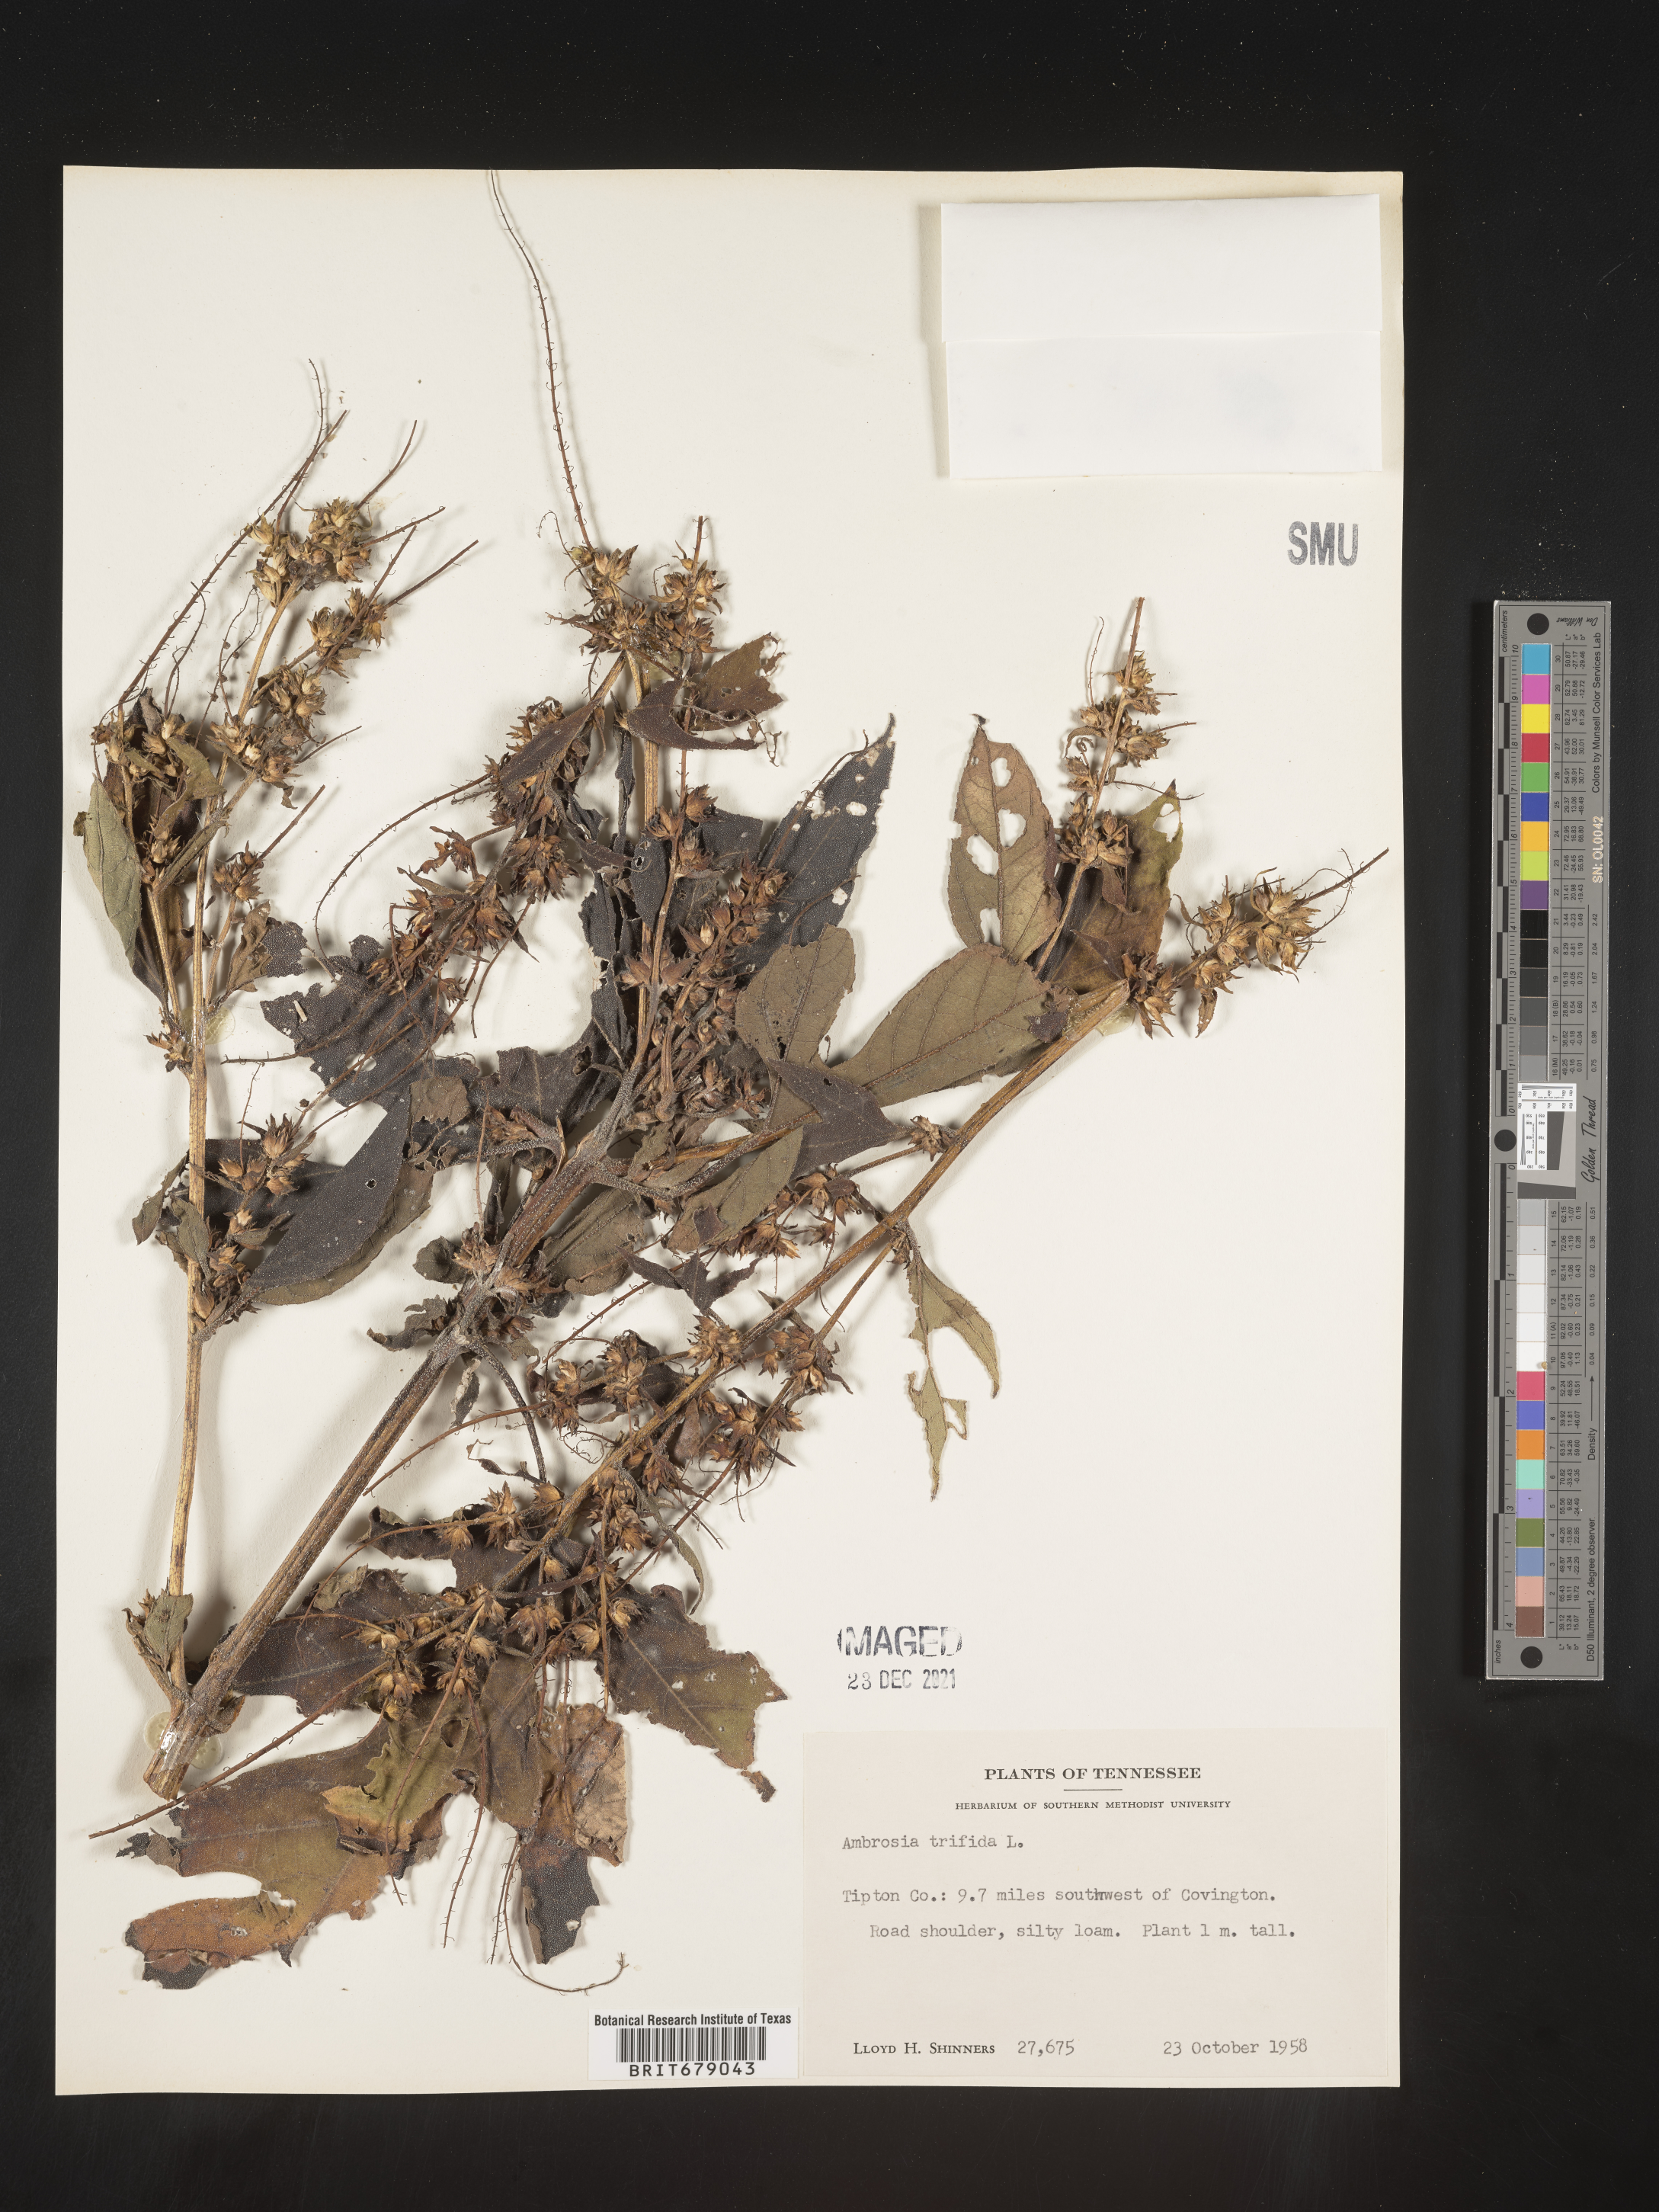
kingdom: Plantae
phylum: Tracheophyta
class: Magnoliopsida
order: Asterales
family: Asteraceae
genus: Ambrosia
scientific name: Ambrosia trifida
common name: Giant ragweed
